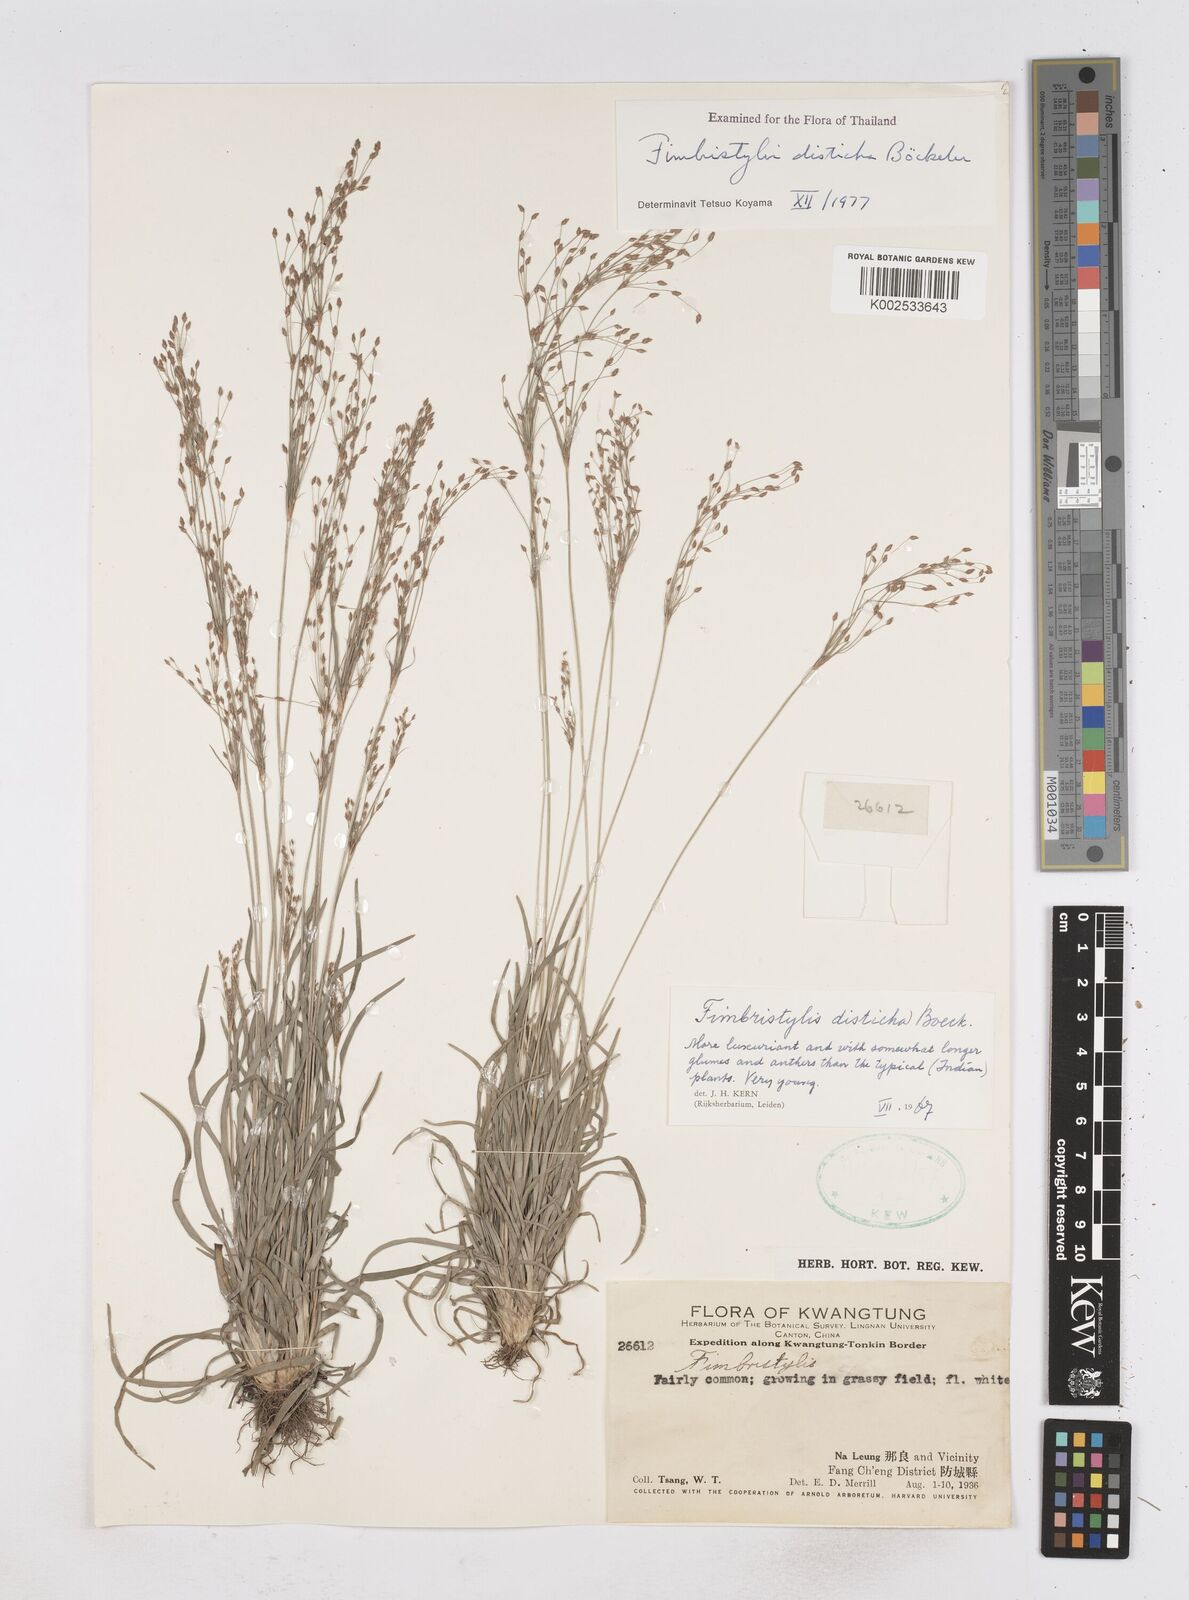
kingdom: Plantae
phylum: Tracheophyta
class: Liliopsida
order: Poales
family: Cyperaceae
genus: Fimbristylis
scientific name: Fimbristylis disticha
